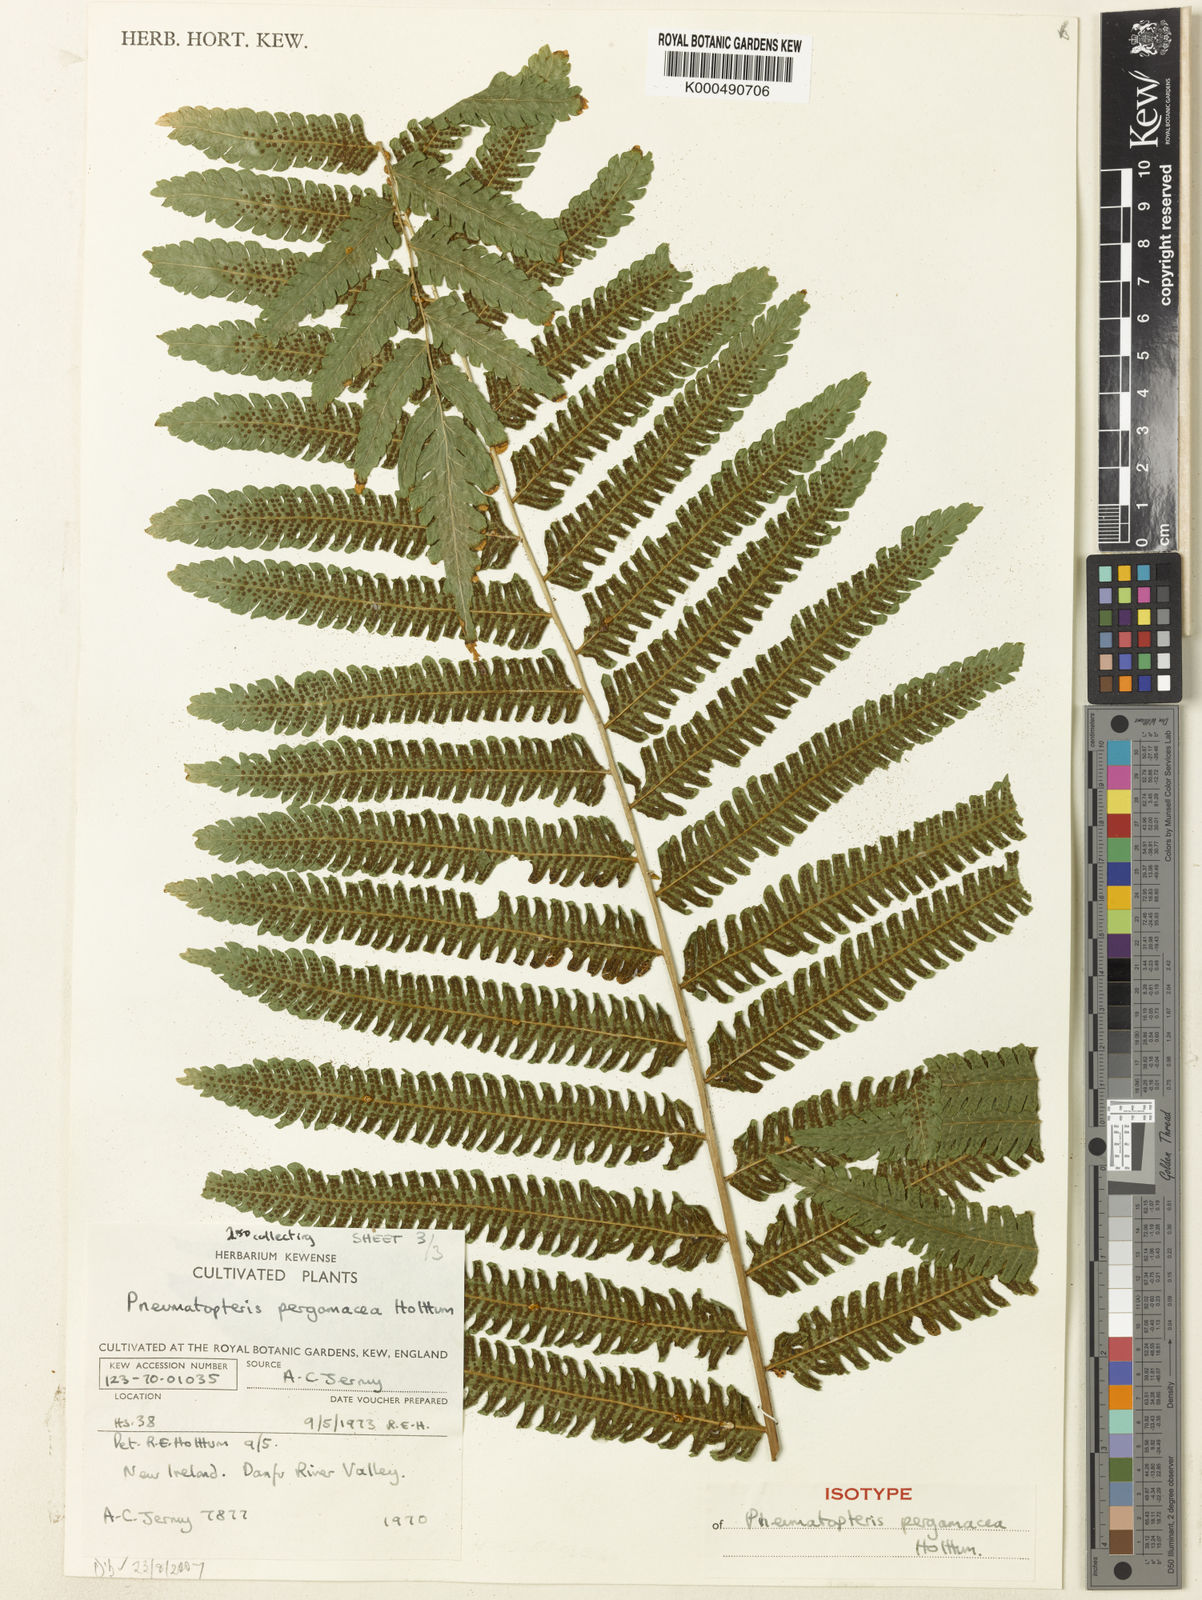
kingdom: Plantae
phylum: Tracheophyta
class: Polypodiopsida
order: Polypodiales
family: Thelypteridaceae
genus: Reholttumia
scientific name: Reholttumia pergamacea
